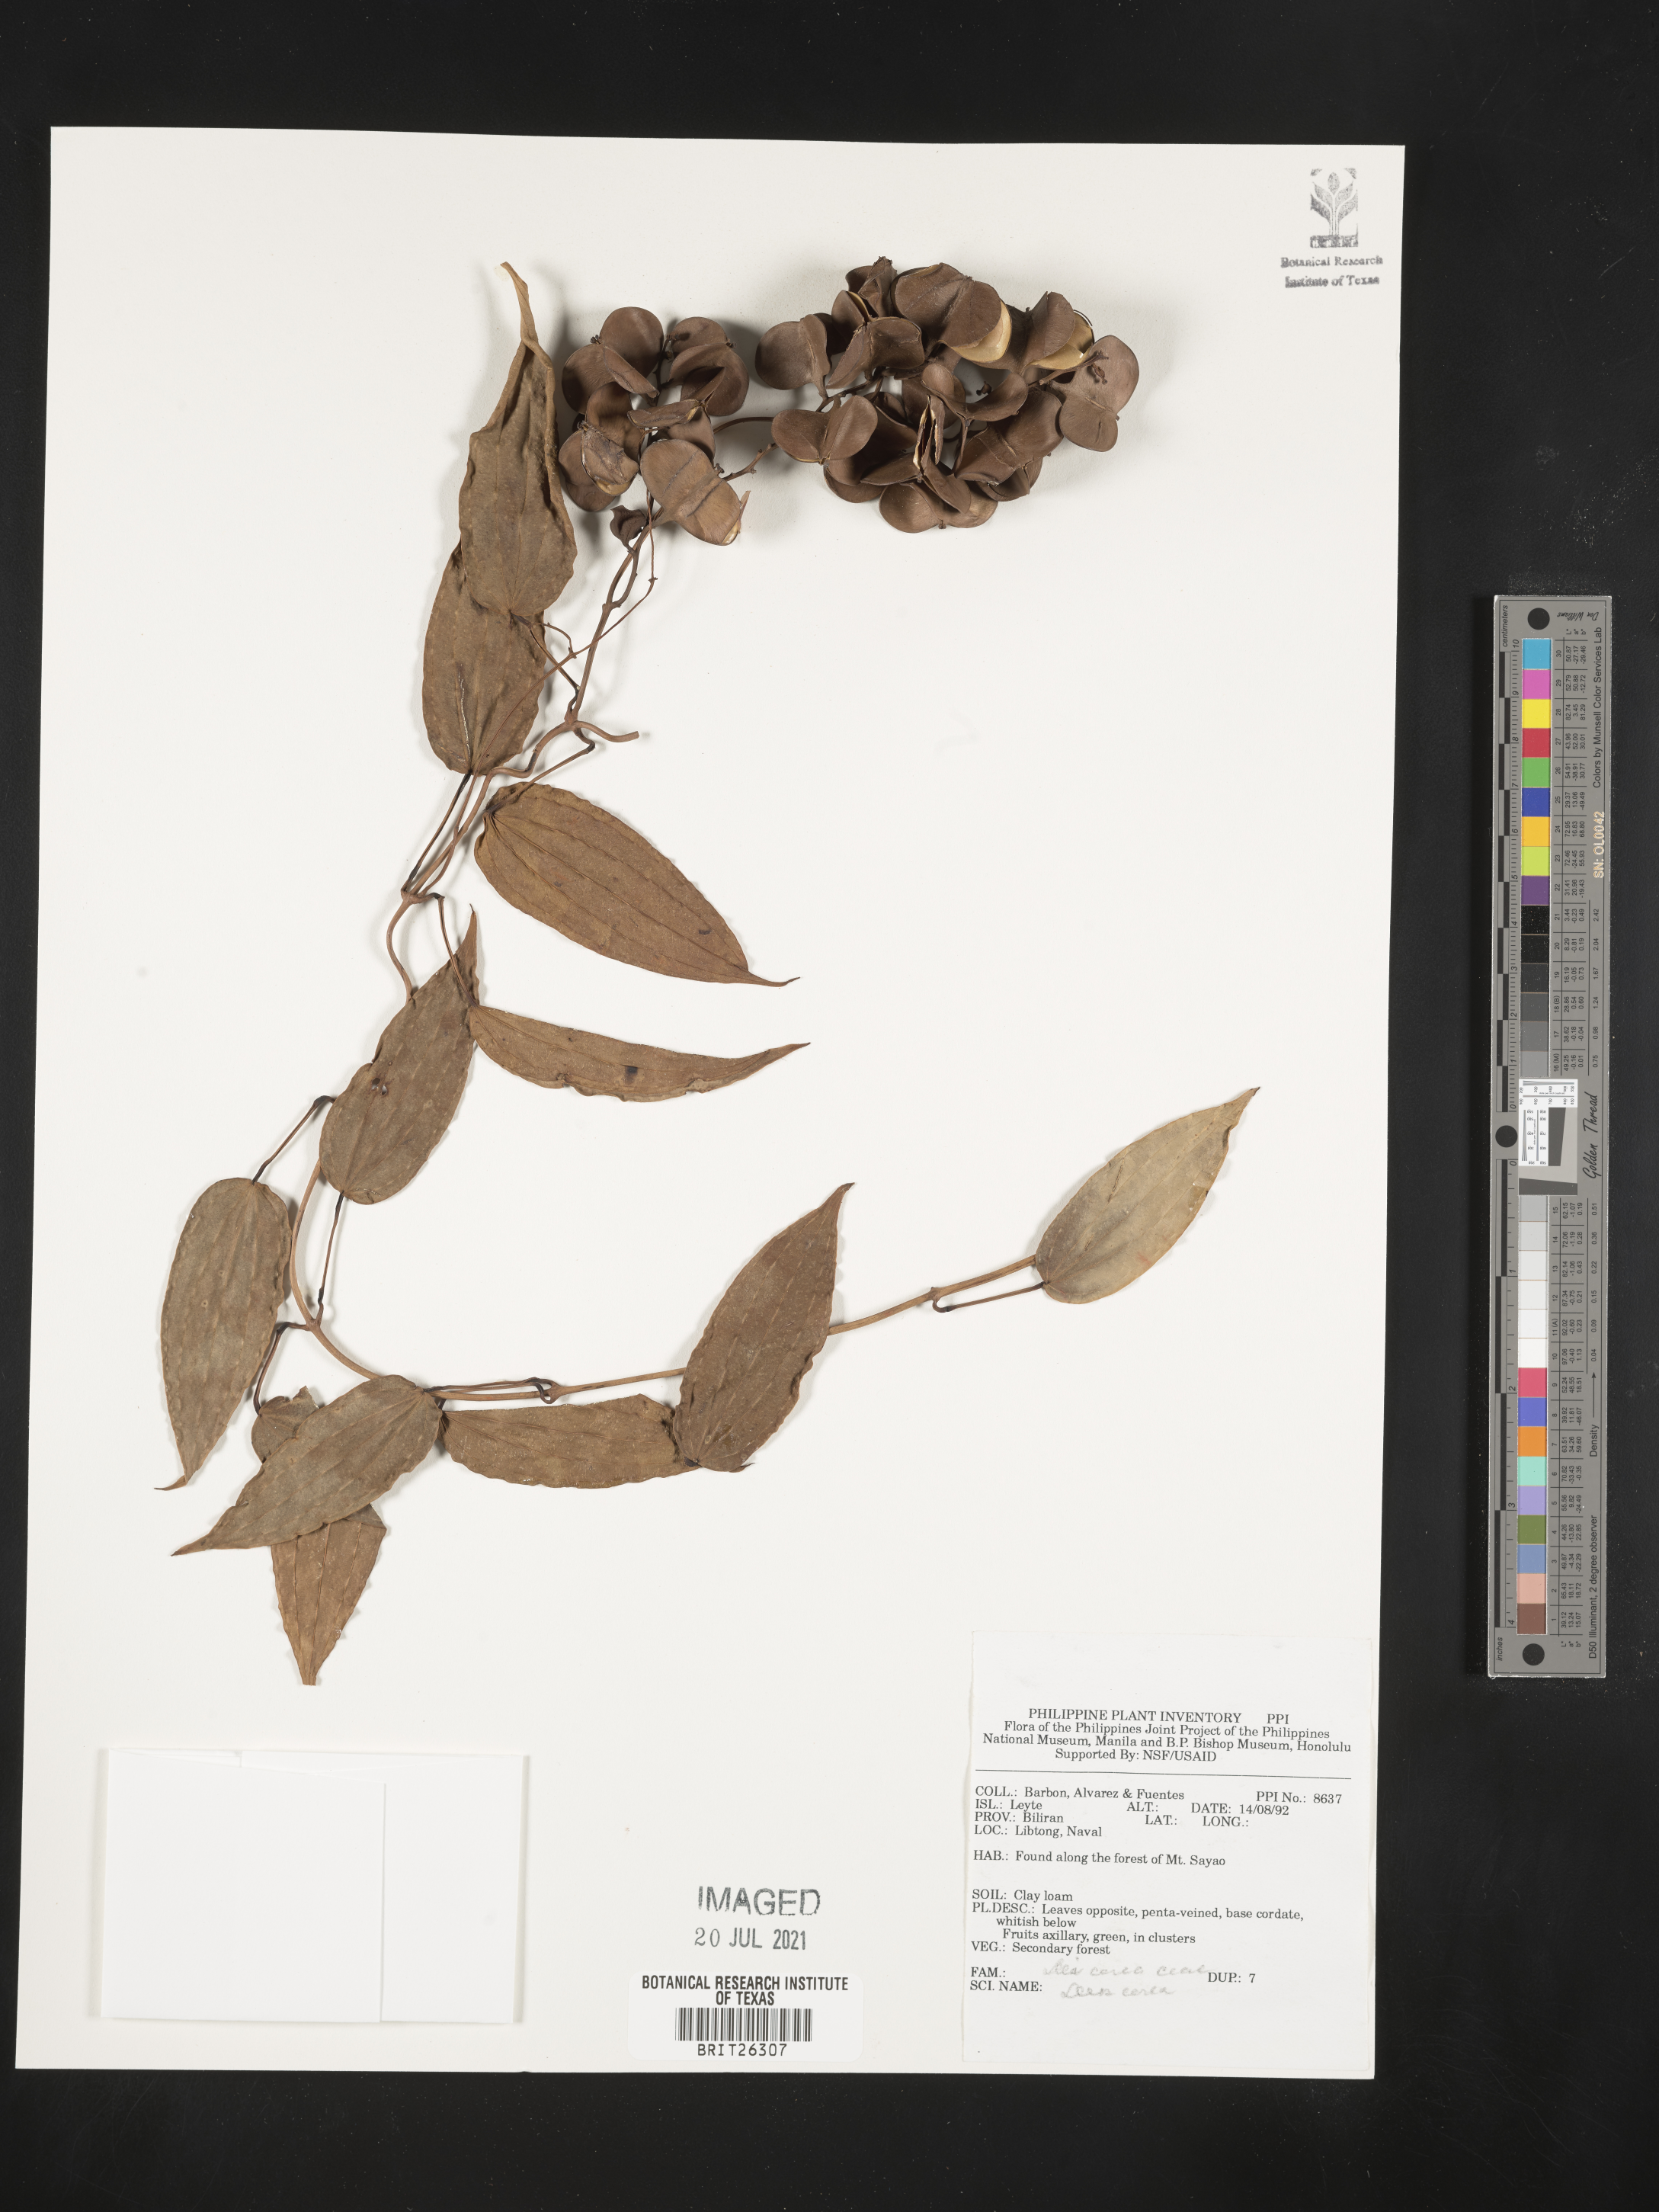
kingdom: Plantae
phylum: Tracheophyta
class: Liliopsida
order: Dioscoreales
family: Dioscoreaceae
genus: Dioscorea
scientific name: Dioscorea
